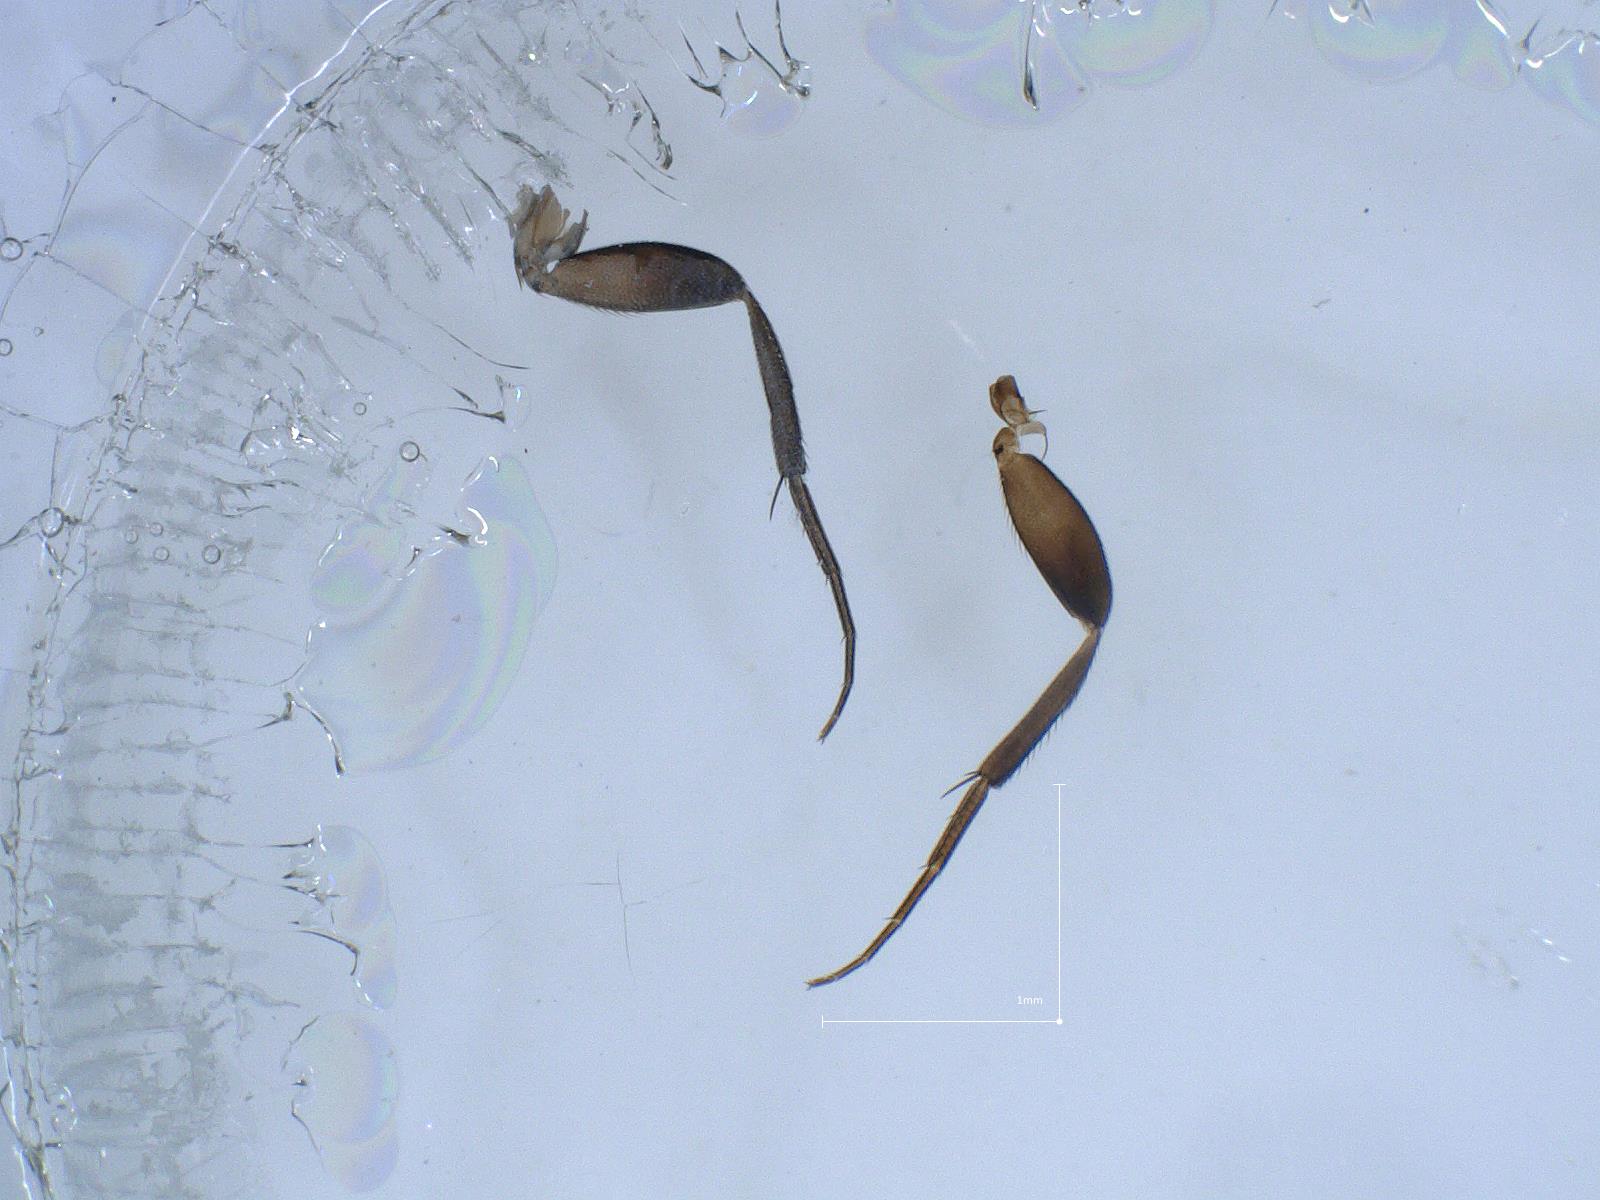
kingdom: Animalia
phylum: Arthropoda
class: Insecta
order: Diptera
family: Phoridae
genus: Megaselia
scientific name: Megaselia vernalis
